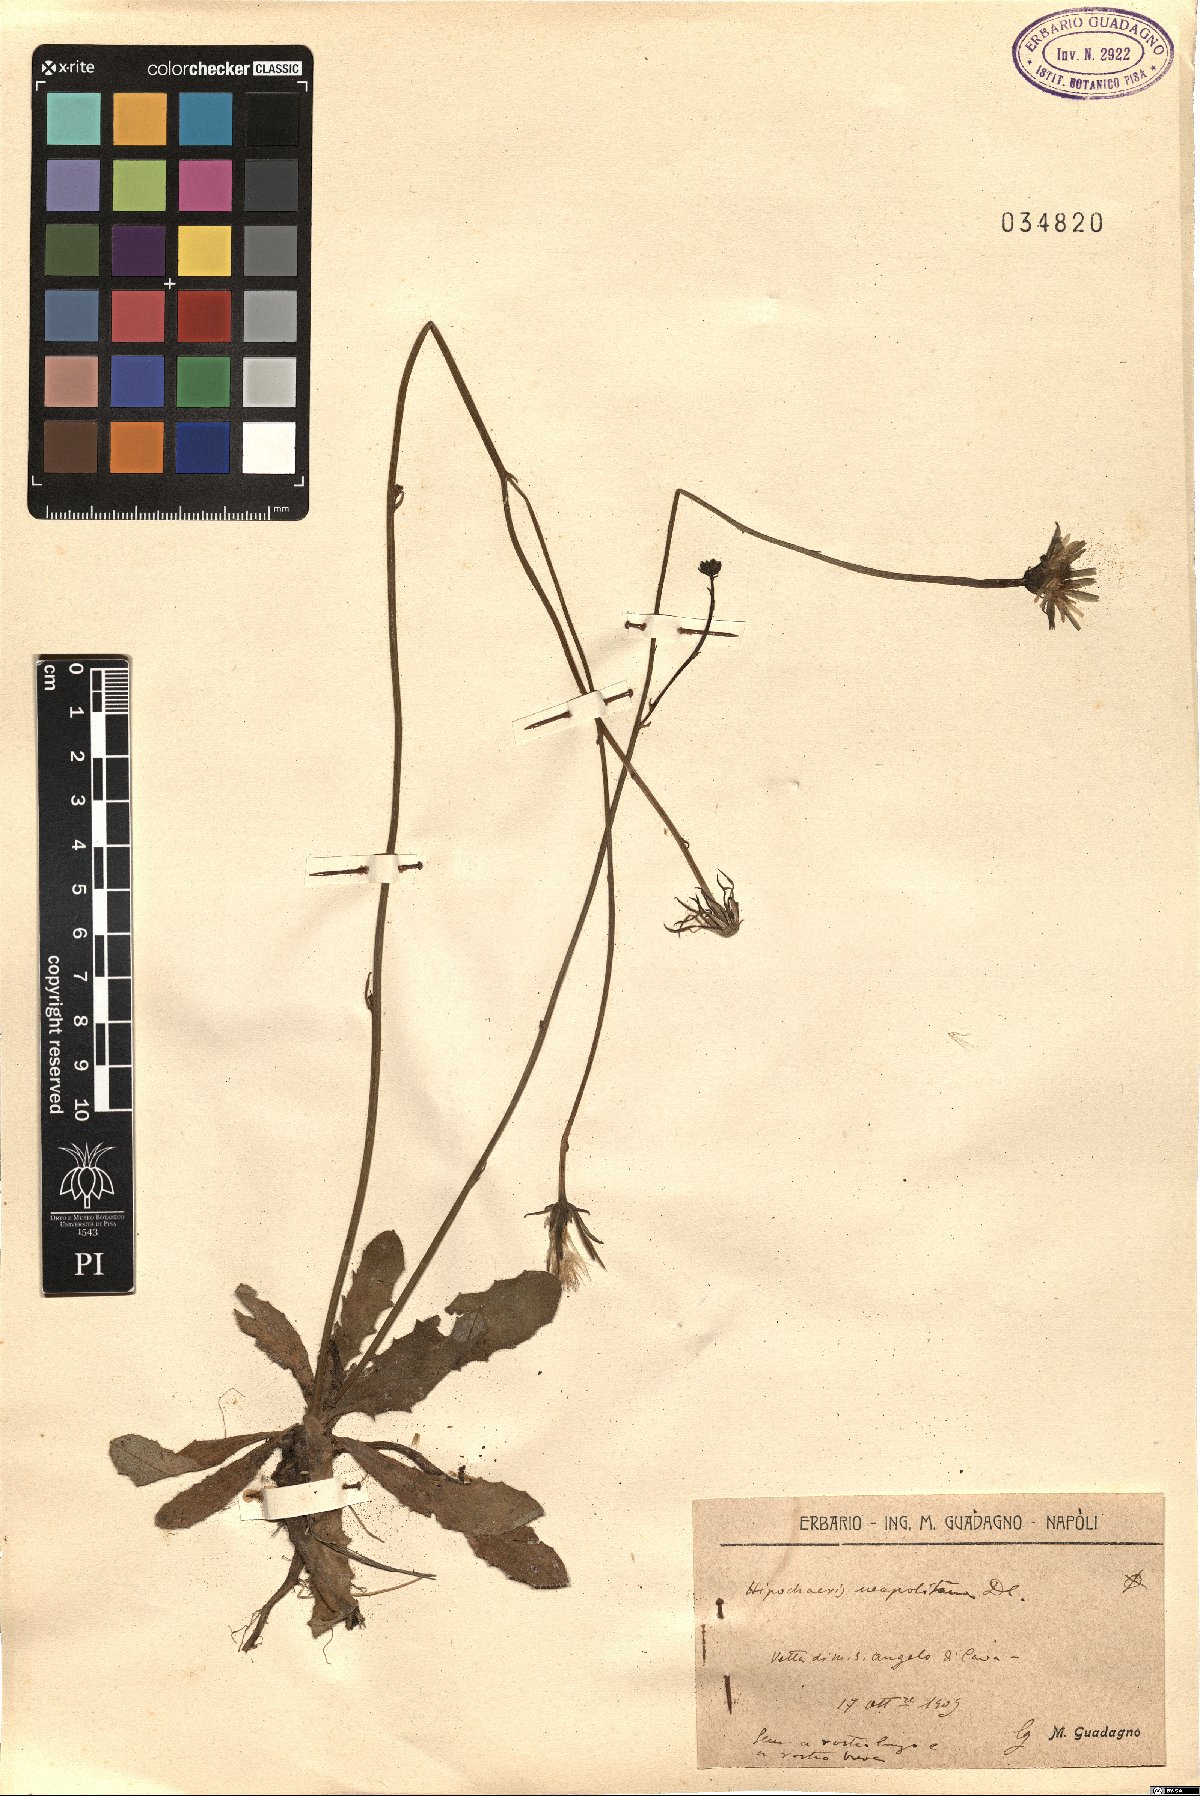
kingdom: Plantae
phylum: Tracheophyta
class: Magnoliopsida
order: Asterales
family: Asteraceae
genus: Hypochaeris
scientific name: Hypochaeris radicata
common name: Flatweed
